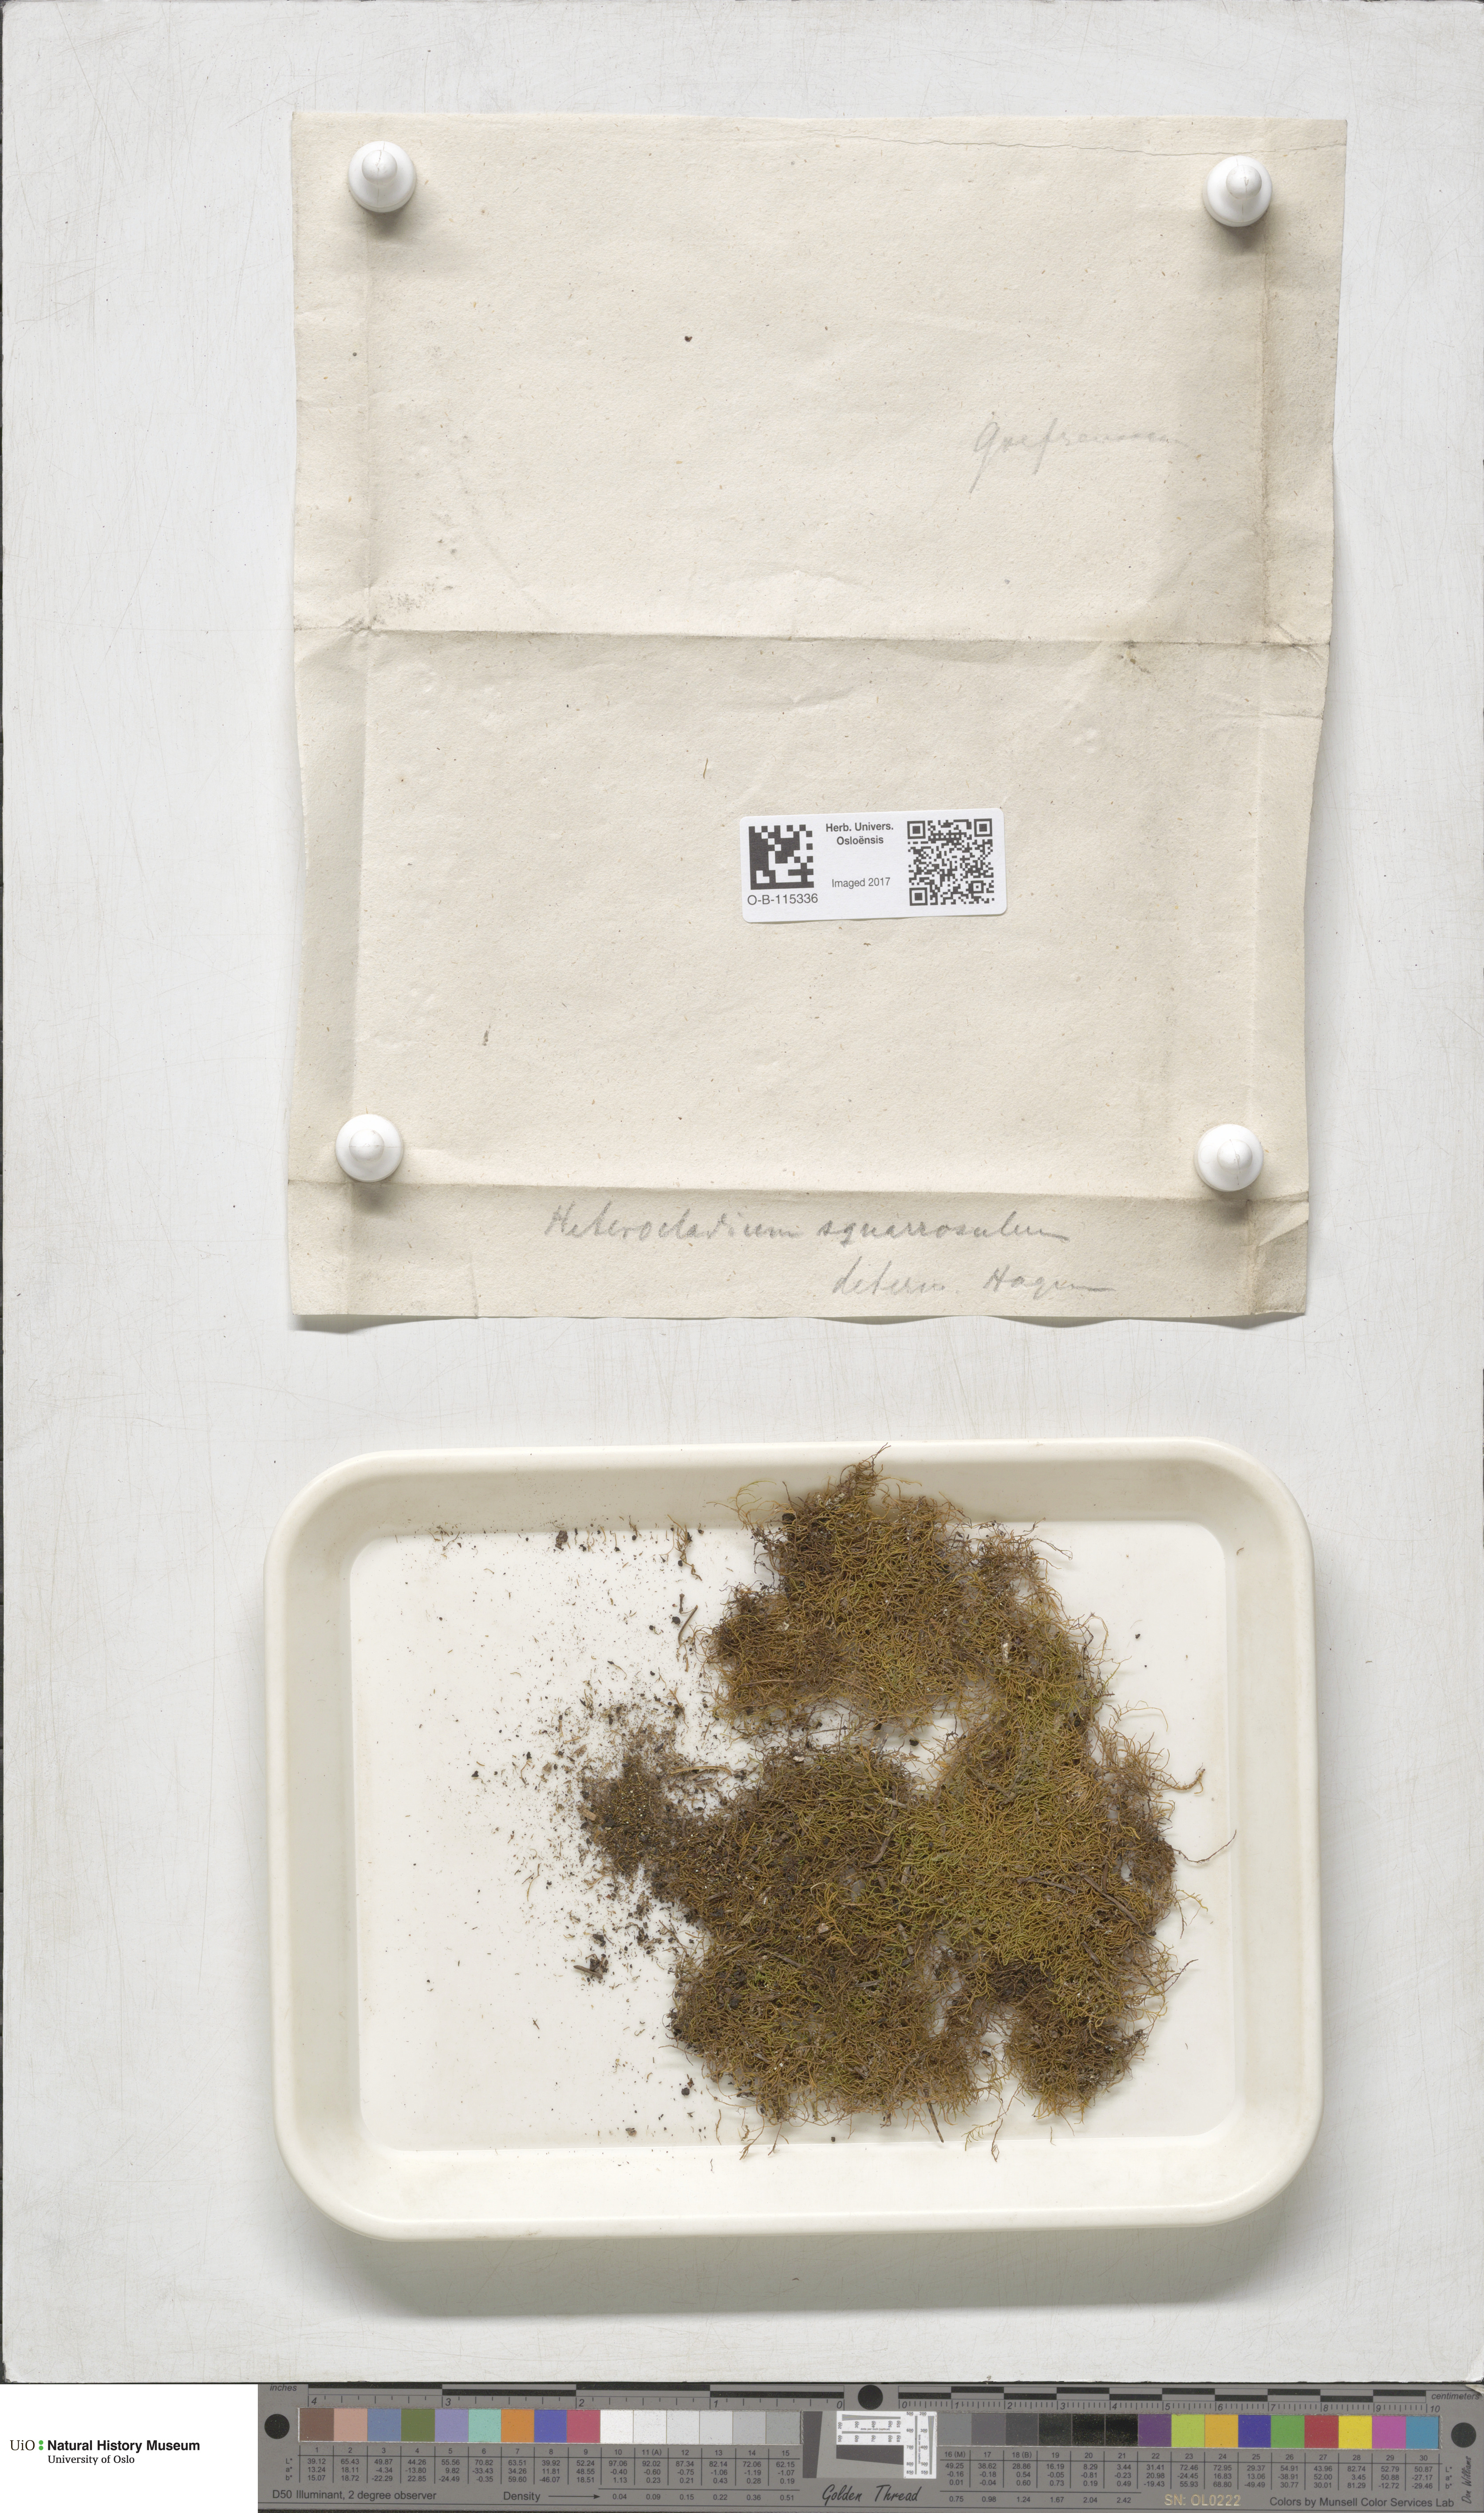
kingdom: Plantae
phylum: Bryophyta
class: Bryopsida
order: Hypnales
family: Heterocladiellaceae
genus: Heterocladiella
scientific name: Heterocladiella dimorpha
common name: Dimorphous tamarisk-moss
